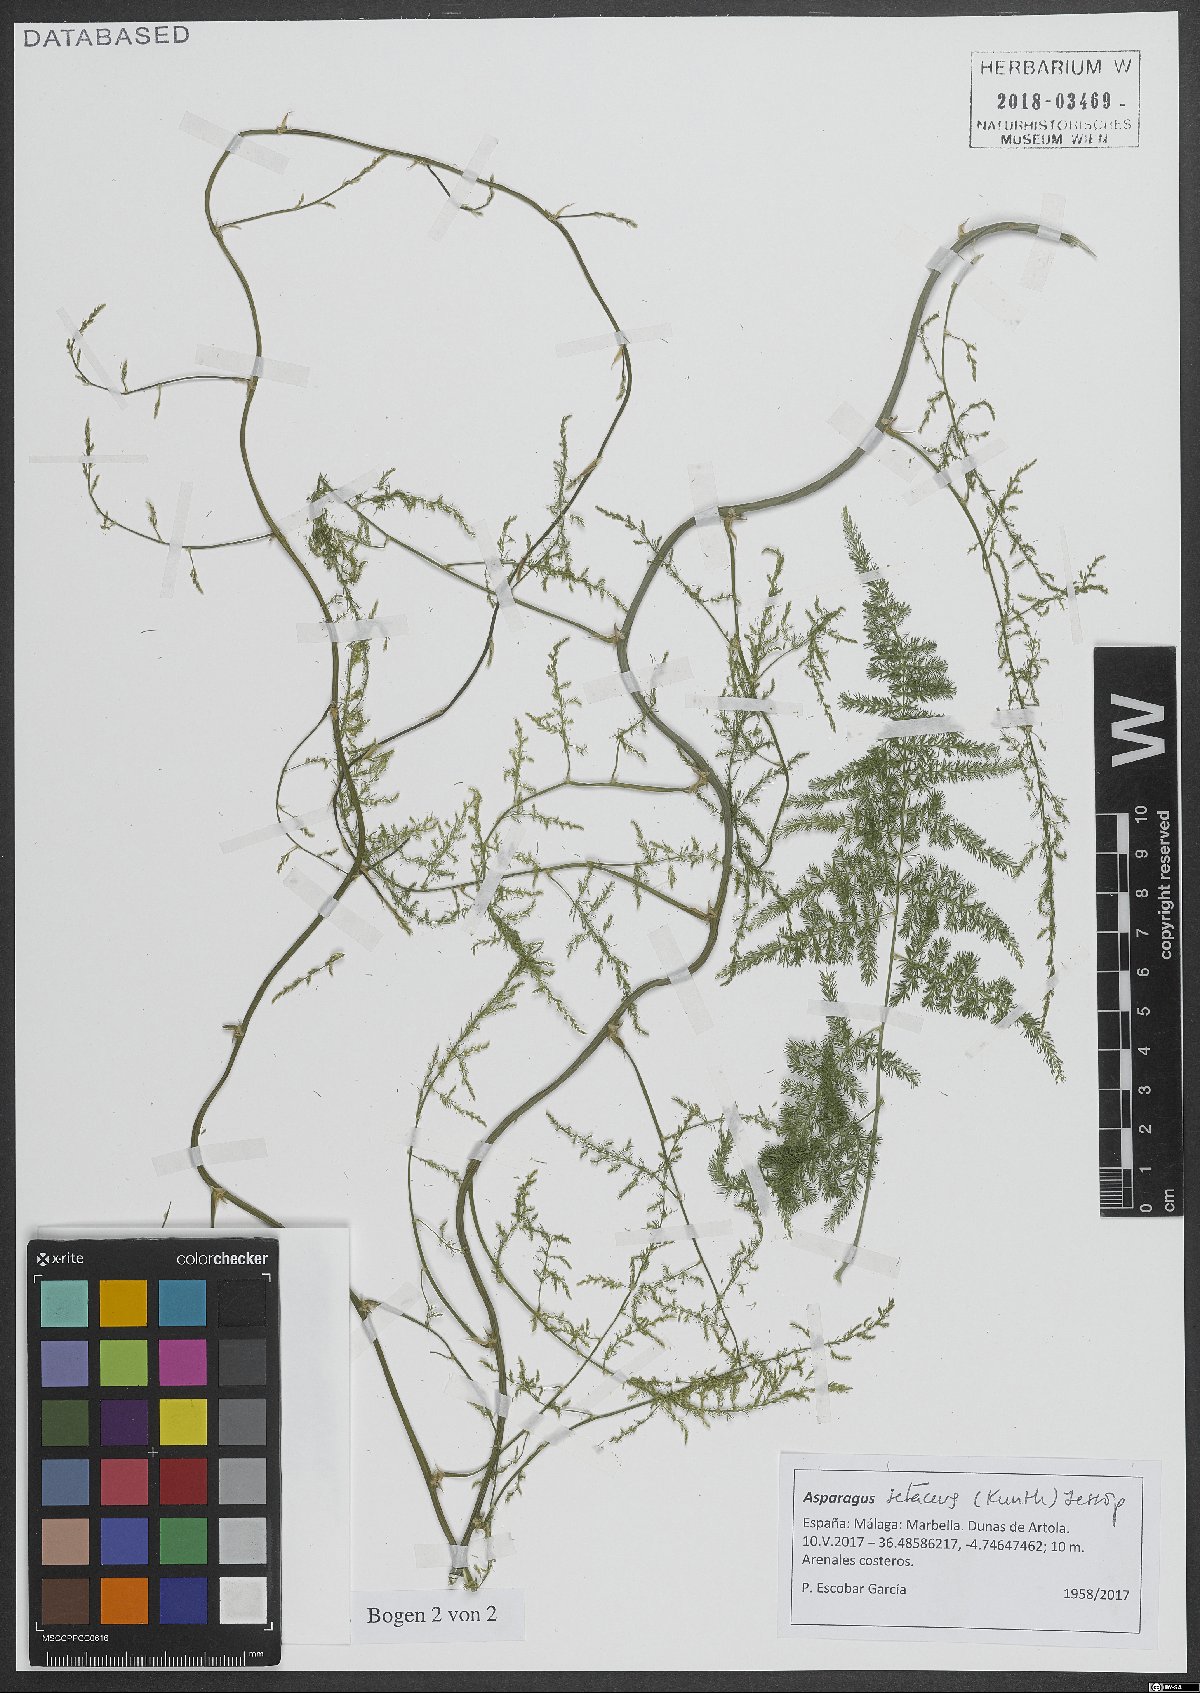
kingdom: Plantae
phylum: Tracheophyta
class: Liliopsida
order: Asparagales
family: Asparagaceae
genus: Asparagus
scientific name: Asparagus setaceus
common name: Common asparagus fern
